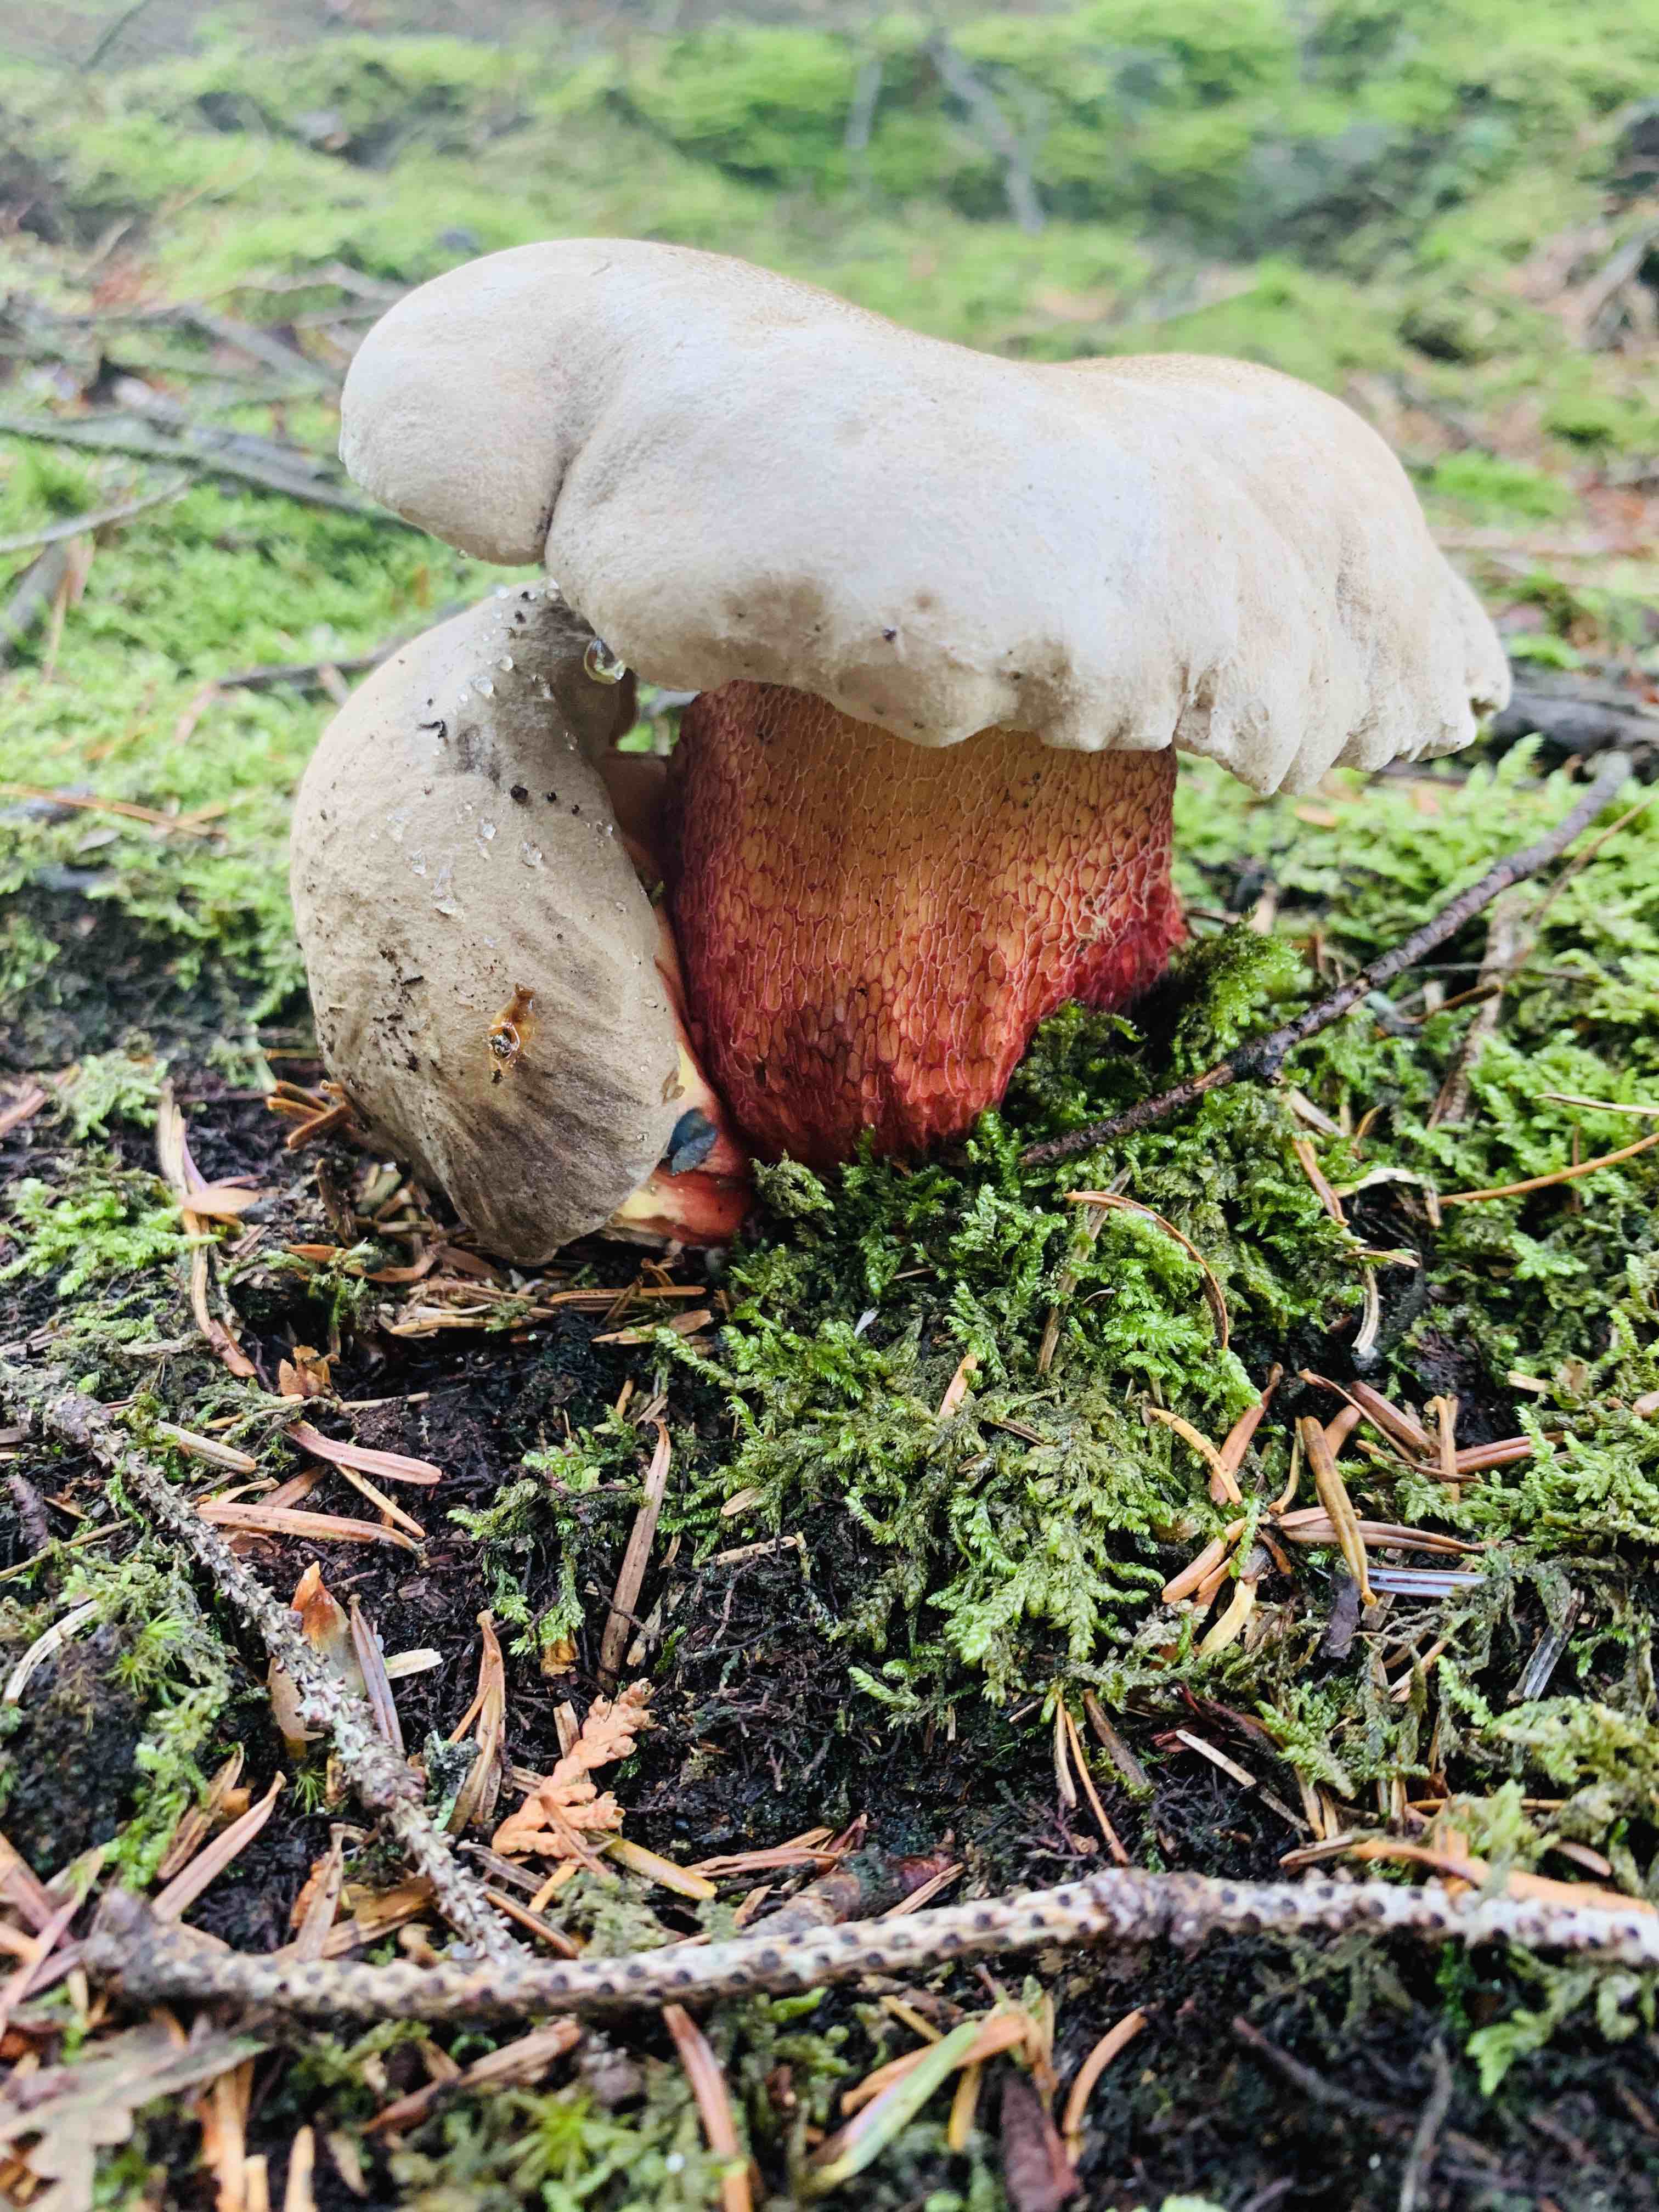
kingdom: Fungi
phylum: Basidiomycota
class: Agaricomycetes
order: Boletales
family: Boletaceae
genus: Caloboletus
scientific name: Caloboletus calopus
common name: skønfodet rørhat
